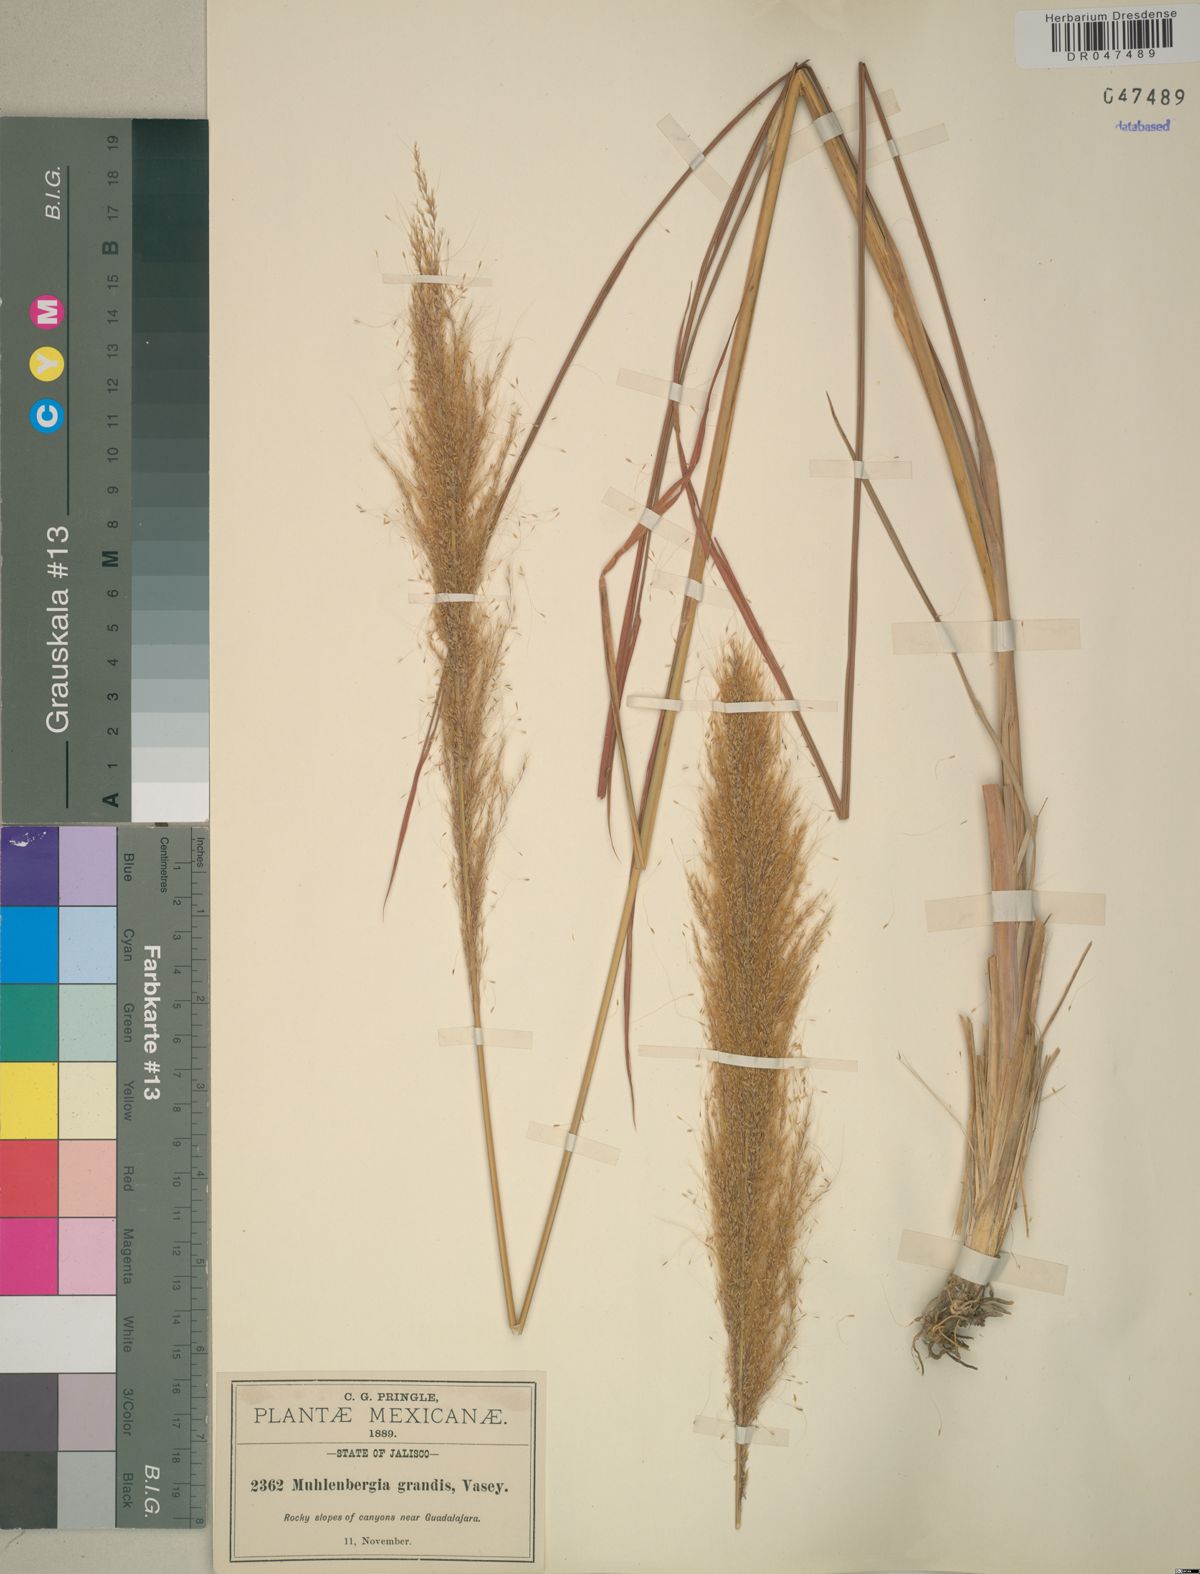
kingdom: Plantae
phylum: Tracheophyta
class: Liliopsida
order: Poales
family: Poaceae
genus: Muhlenbergia
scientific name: Muhlenbergia grandis
